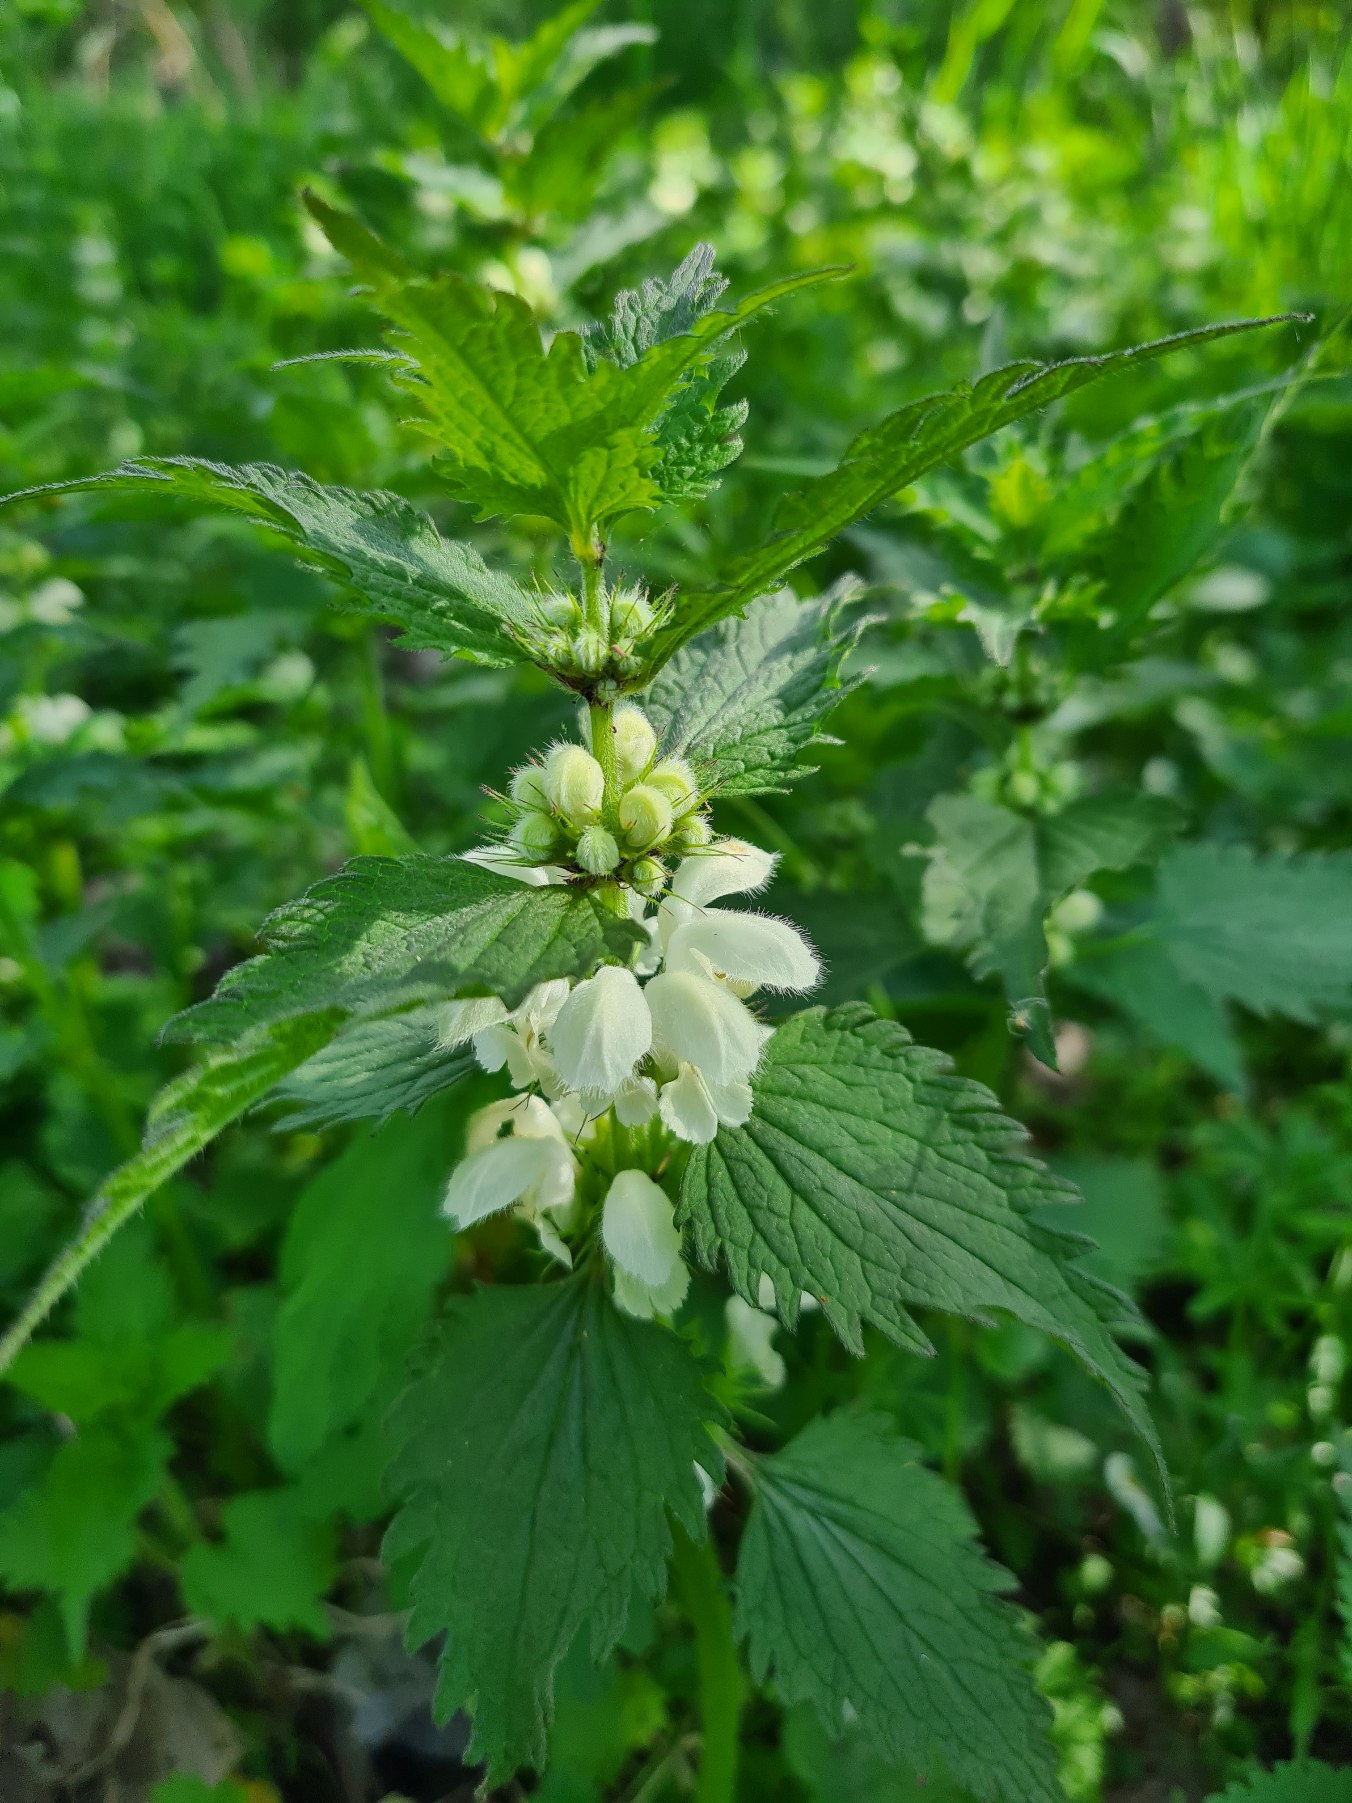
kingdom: Plantae
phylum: Tracheophyta
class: Magnoliopsida
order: Lamiales
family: Lamiaceae
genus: Lamium
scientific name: Lamium album
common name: Døvnælde
